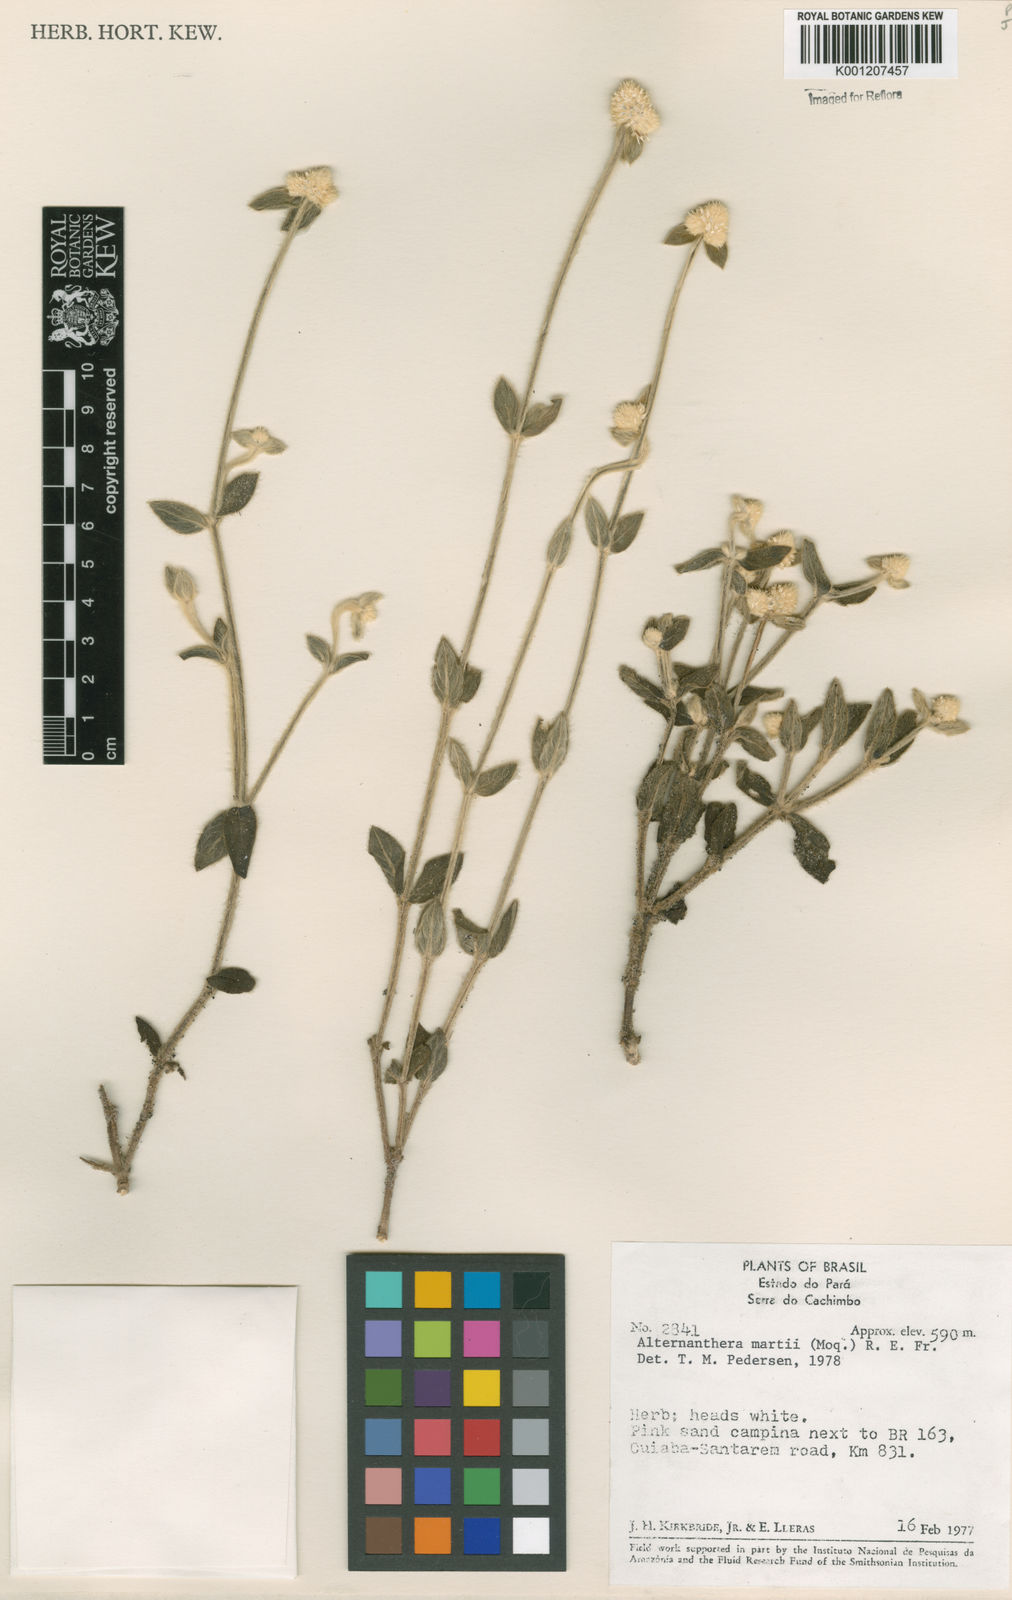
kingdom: Plantae
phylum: Tracheophyta
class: Magnoliopsida
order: Caryophyllales
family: Amaranthaceae
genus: Alternanthera
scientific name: Alternanthera martii
